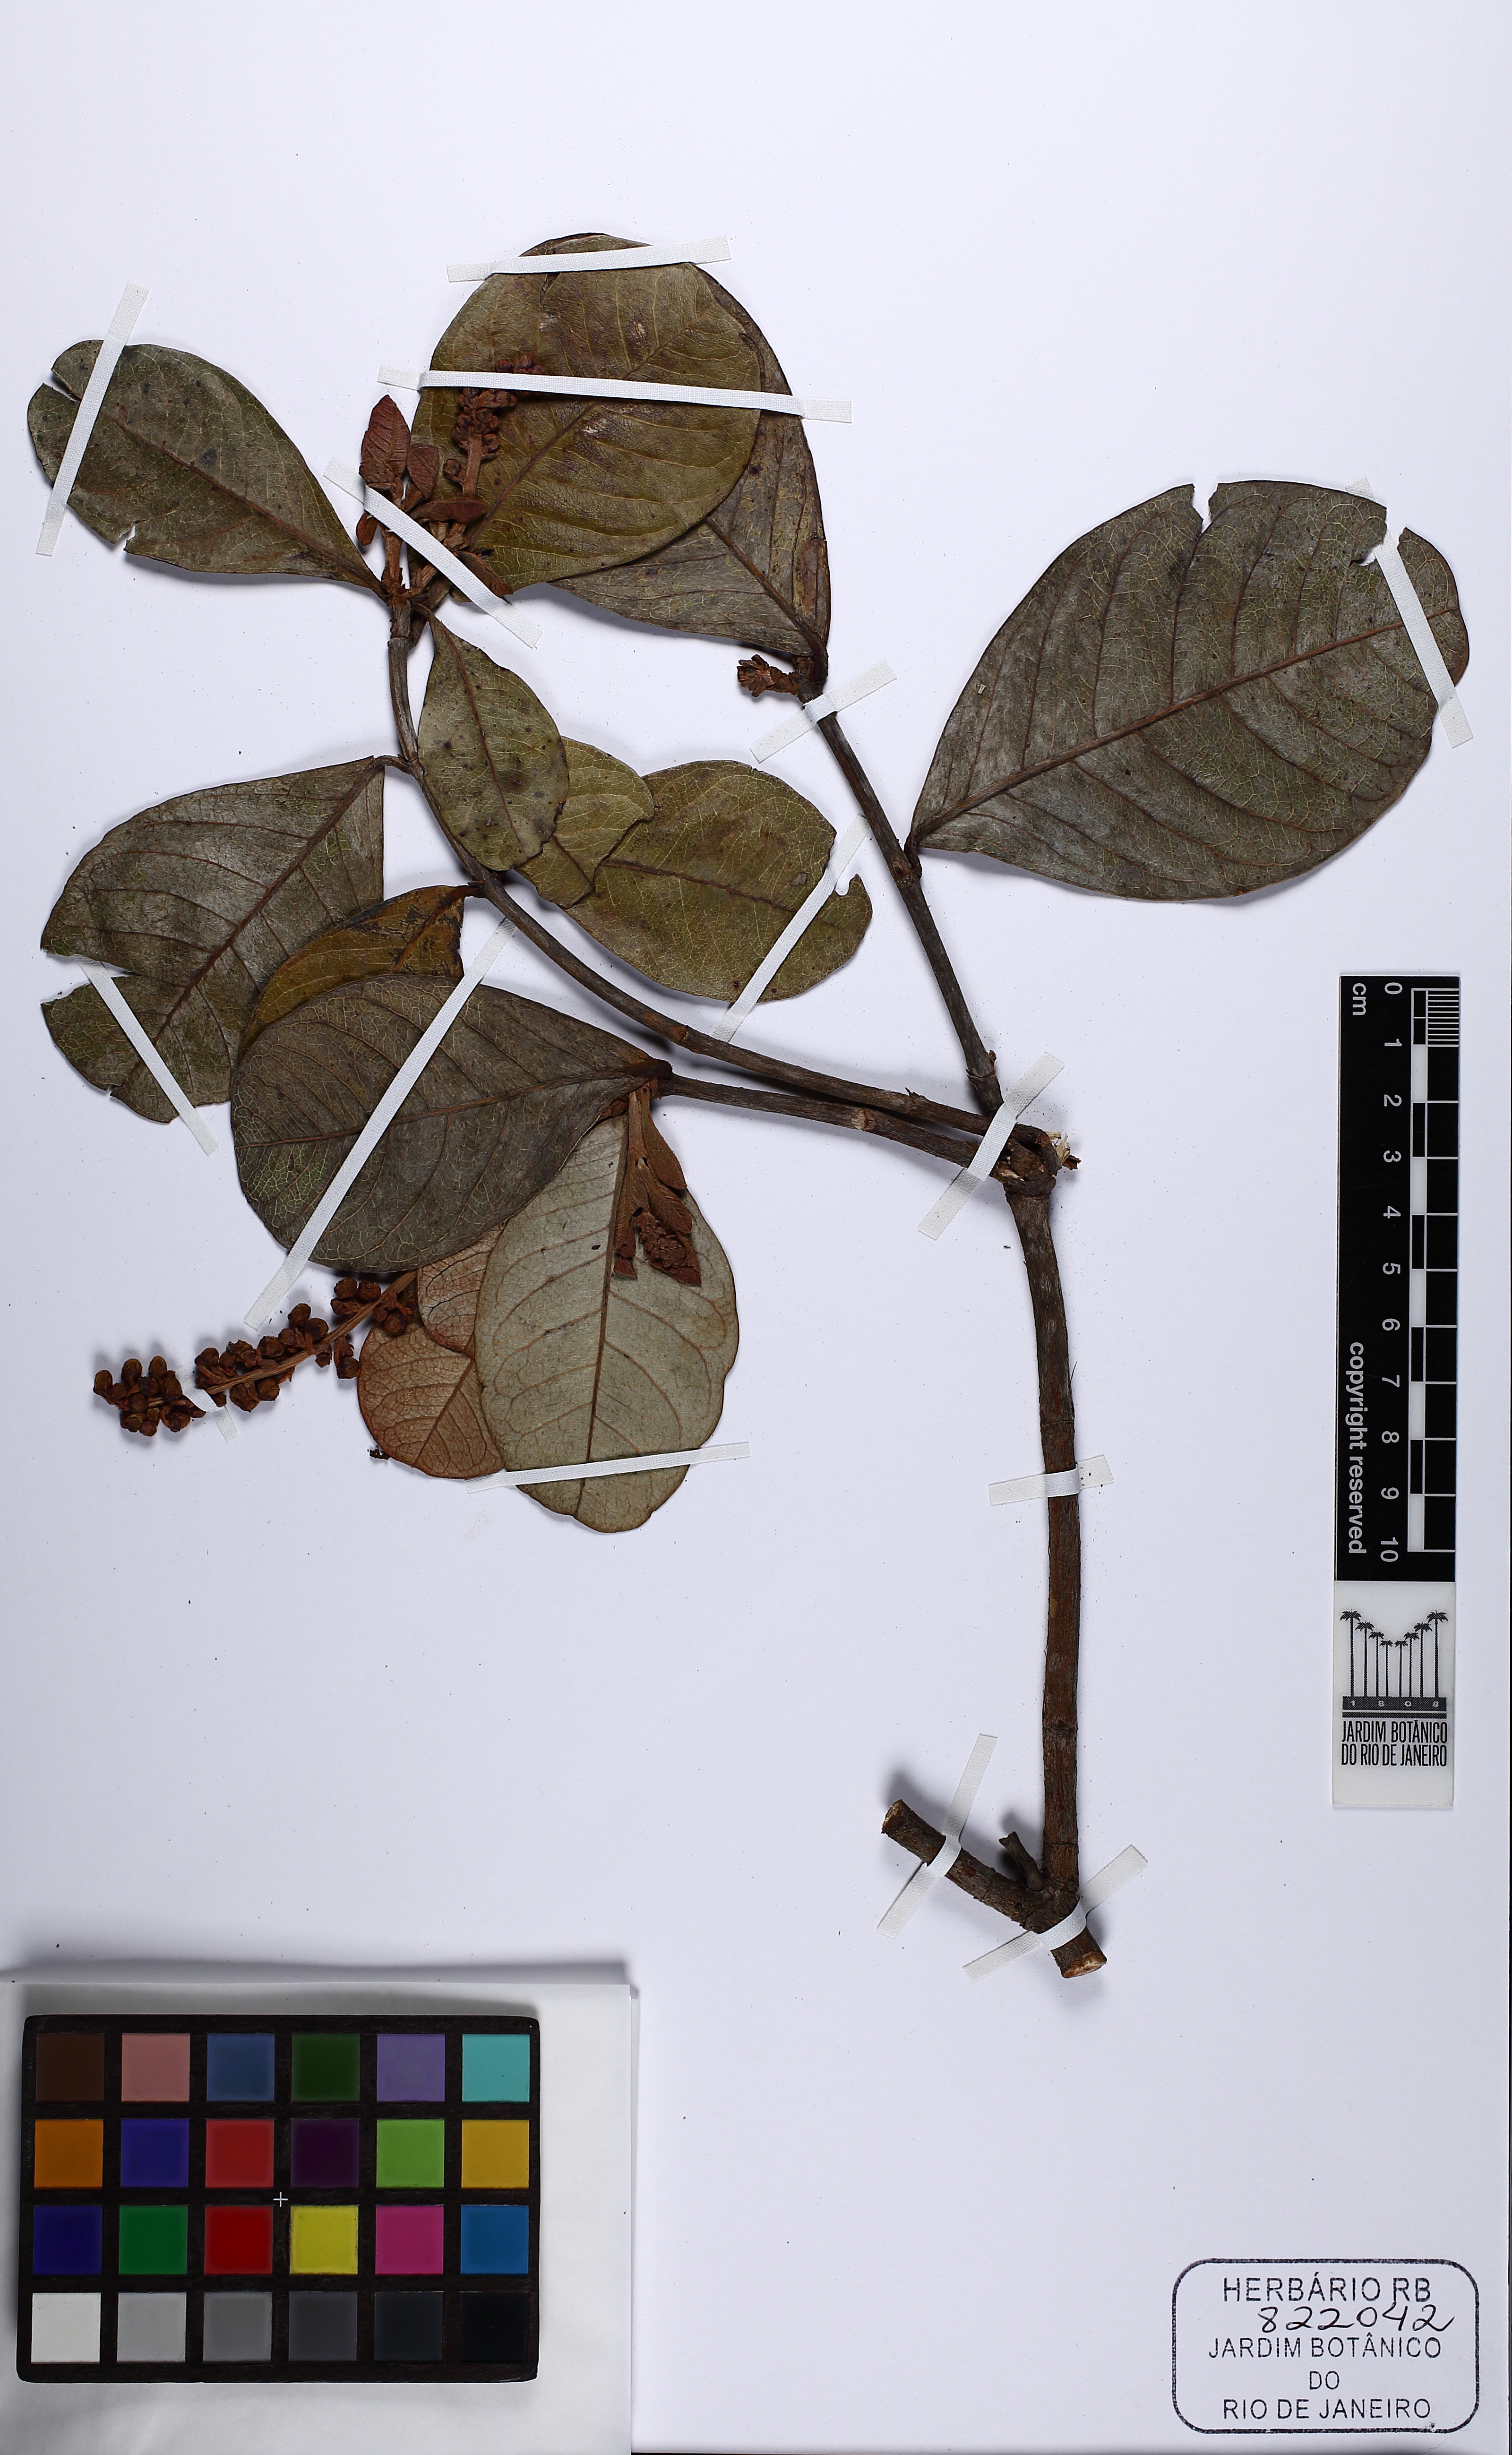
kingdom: Plantae
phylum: Tracheophyta
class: Magnoliopsida
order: Malpighiales
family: Malpighiaceae
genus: Byrsonima
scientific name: Byrsonima
